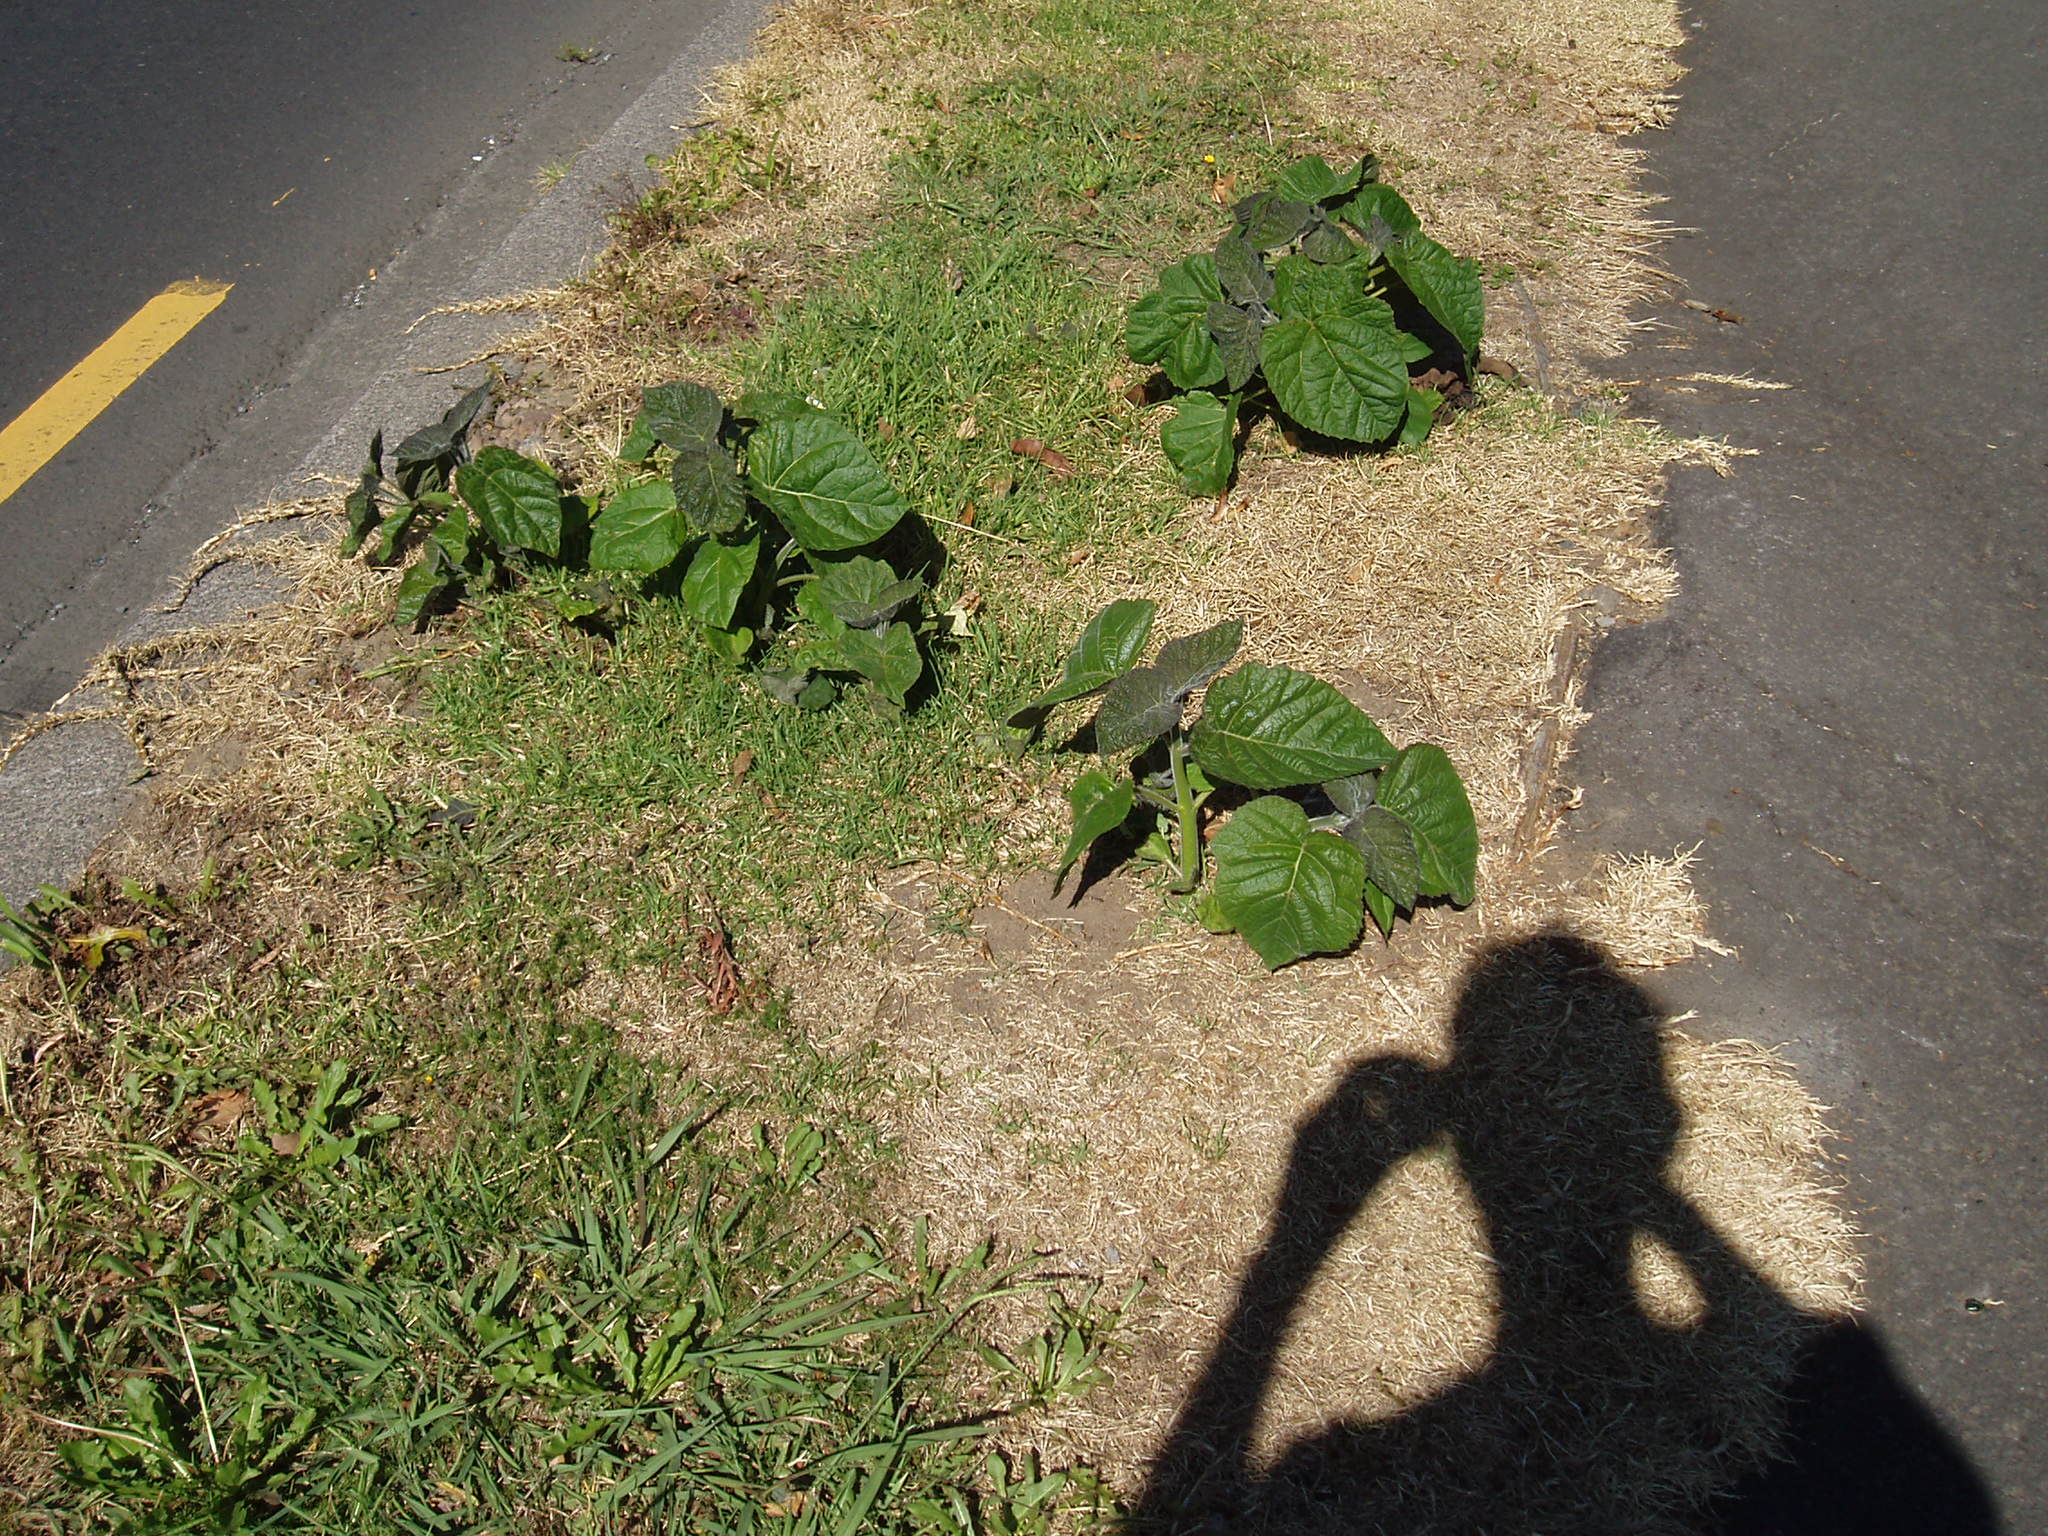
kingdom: Plantae
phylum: Tracheophyta
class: Magnoliopsida
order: Lamiales
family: Paulowniaceae
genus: Paulownia
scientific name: Paulownia fortunei
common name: Dragontree
